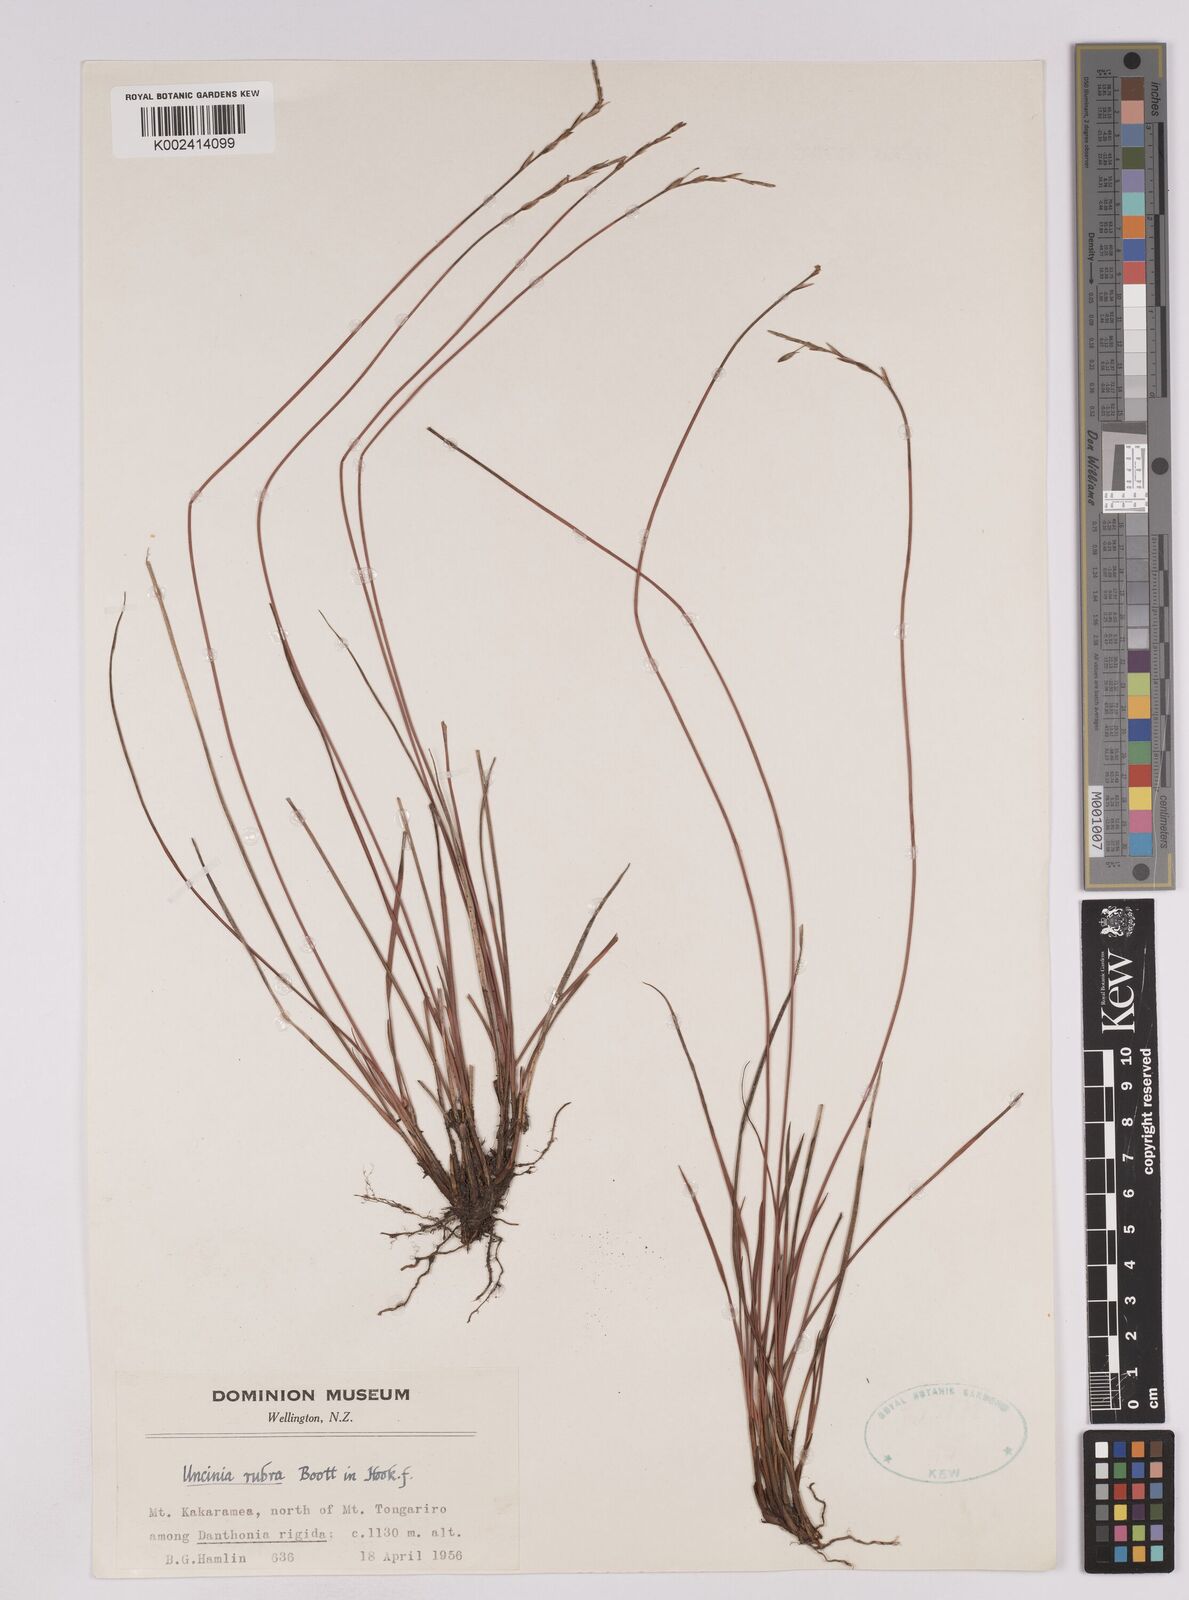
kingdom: Plantae
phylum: Tracheophyta
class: Liliopsida
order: Poales
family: Cyperaceae
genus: Carex
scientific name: Carex punicea
